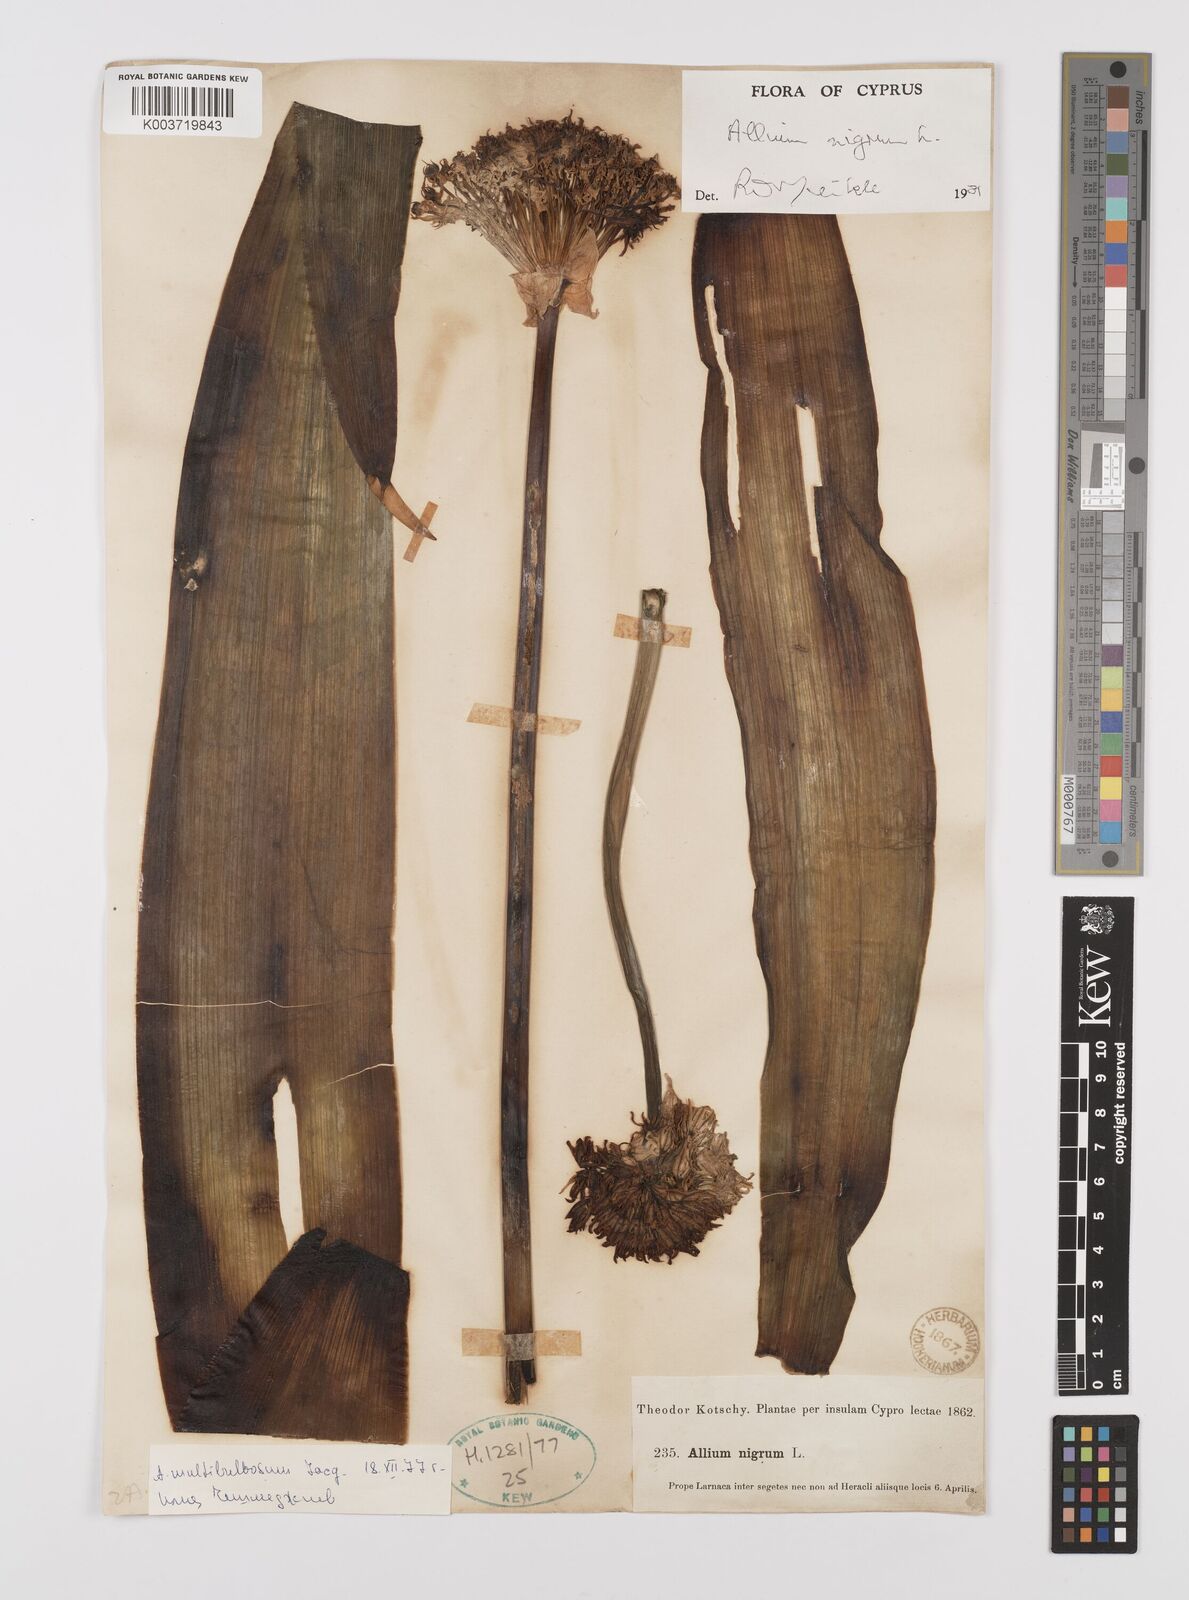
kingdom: Plantae
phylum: Tracheophyta
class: Liliopsida
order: Asparagales
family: Amaryllidaceae
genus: Allium
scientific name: Allium nigrum
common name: Black garlic
